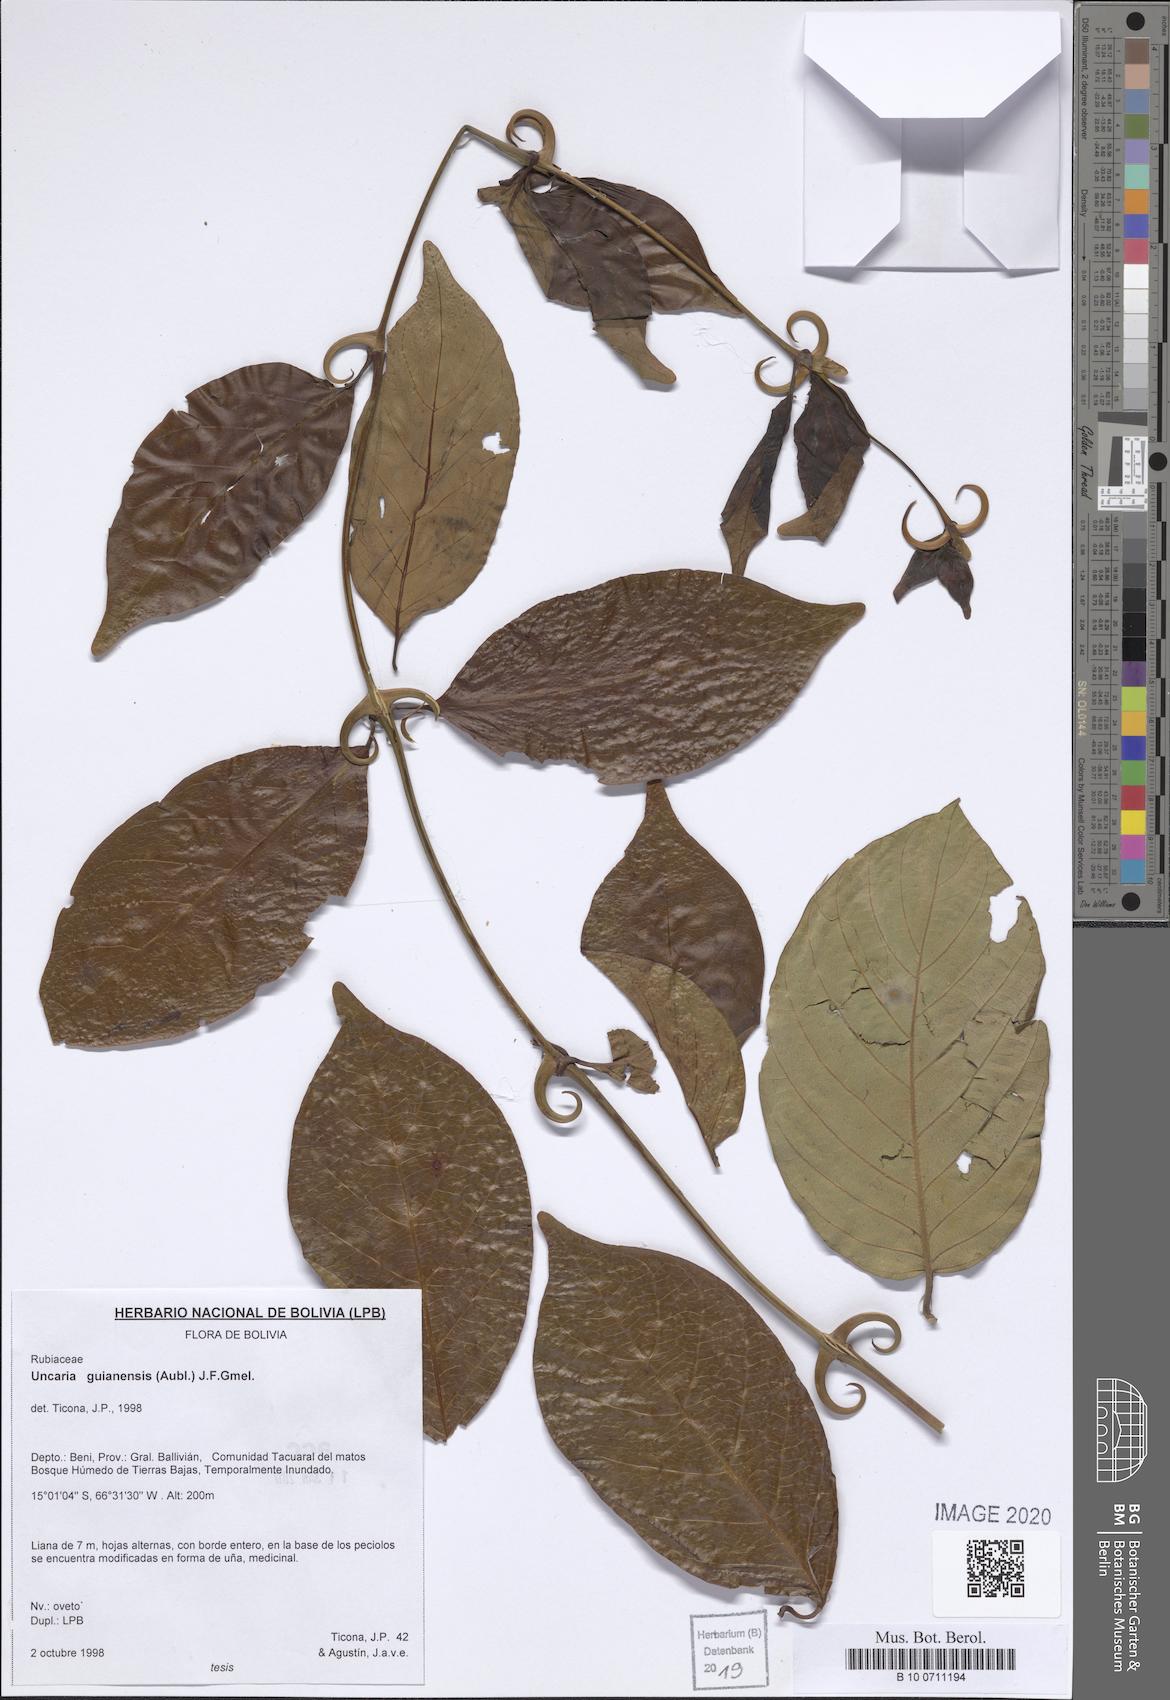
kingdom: Plantae
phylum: Tracheophyta
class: Magnoliopsida
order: Gentianales
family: Rubiaceae
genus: Uncaria
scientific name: Uncaria guianensis
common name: Cat's-claw
